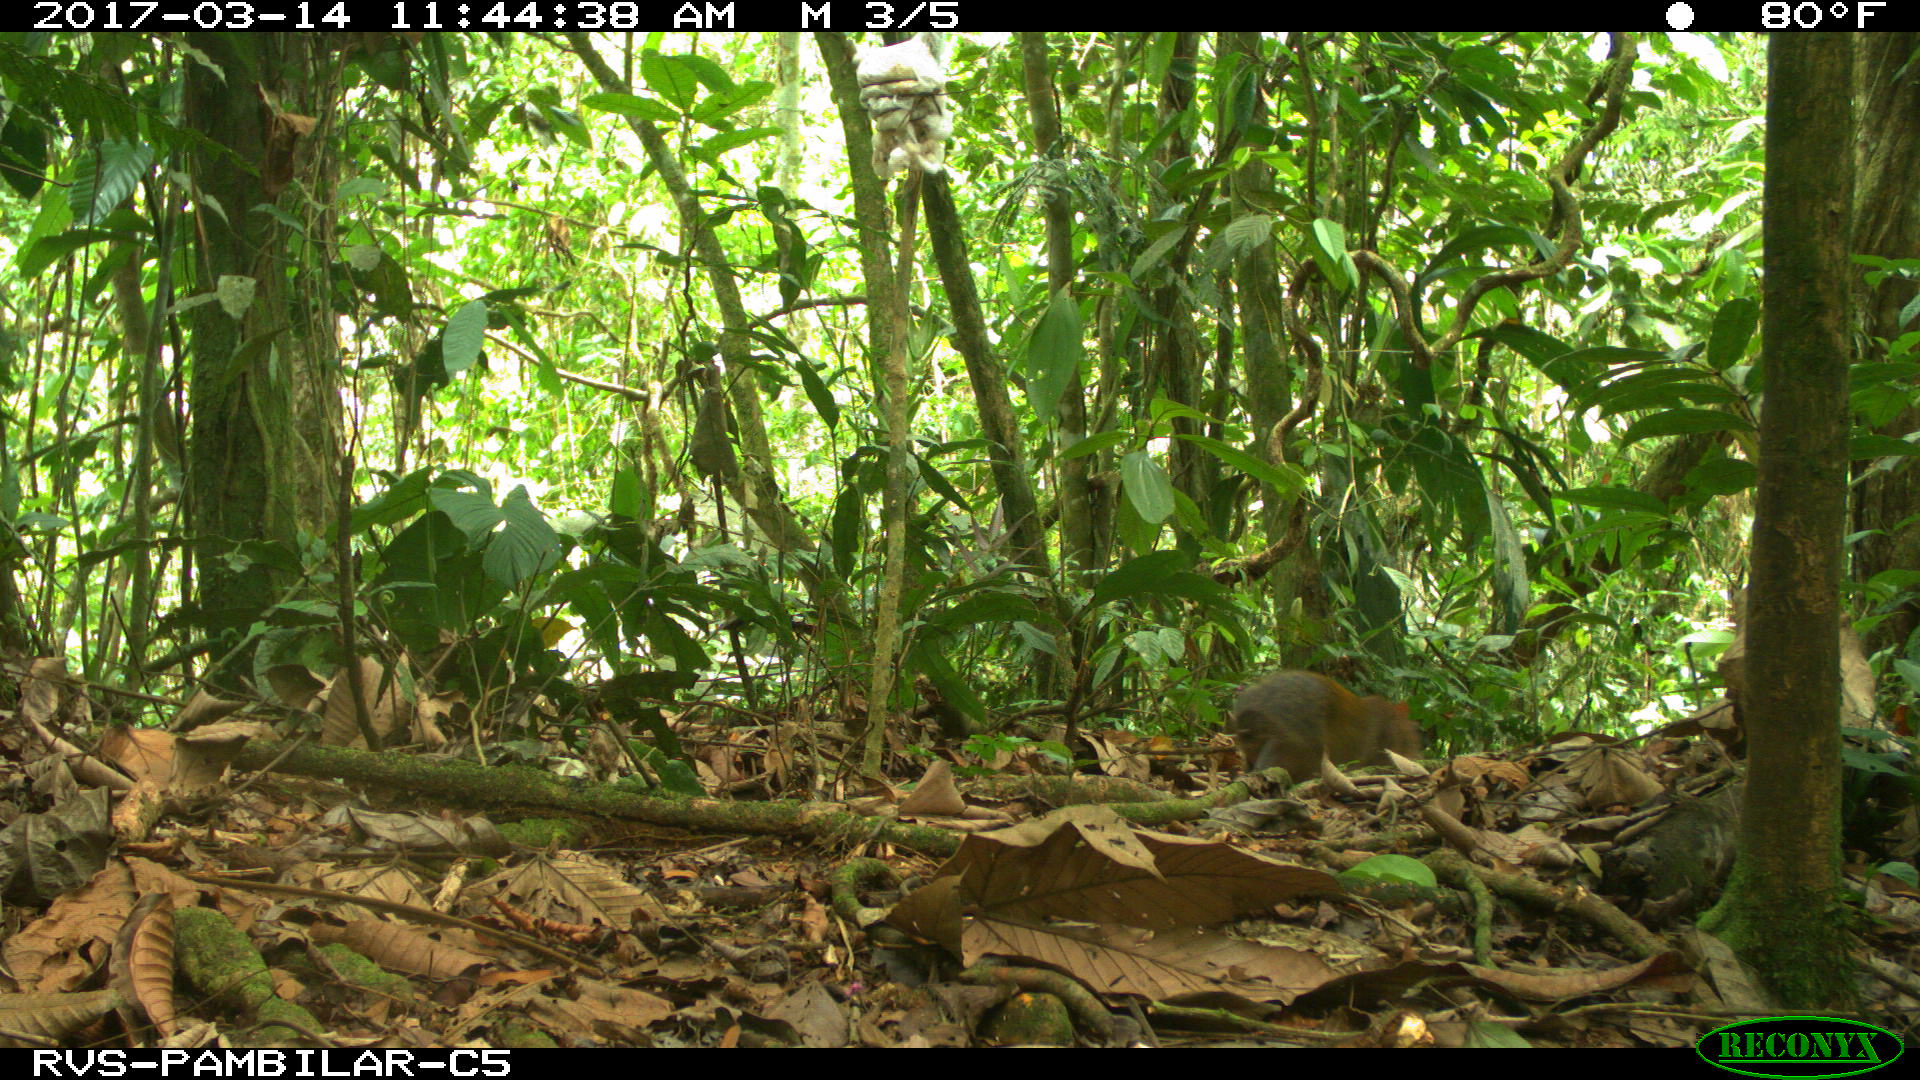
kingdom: Animalia
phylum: Chordata
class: Mammalia
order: Rodentia
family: Dasyproctidae
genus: Dasyprocta
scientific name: Dasyprocta punctata
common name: Central american agouti
